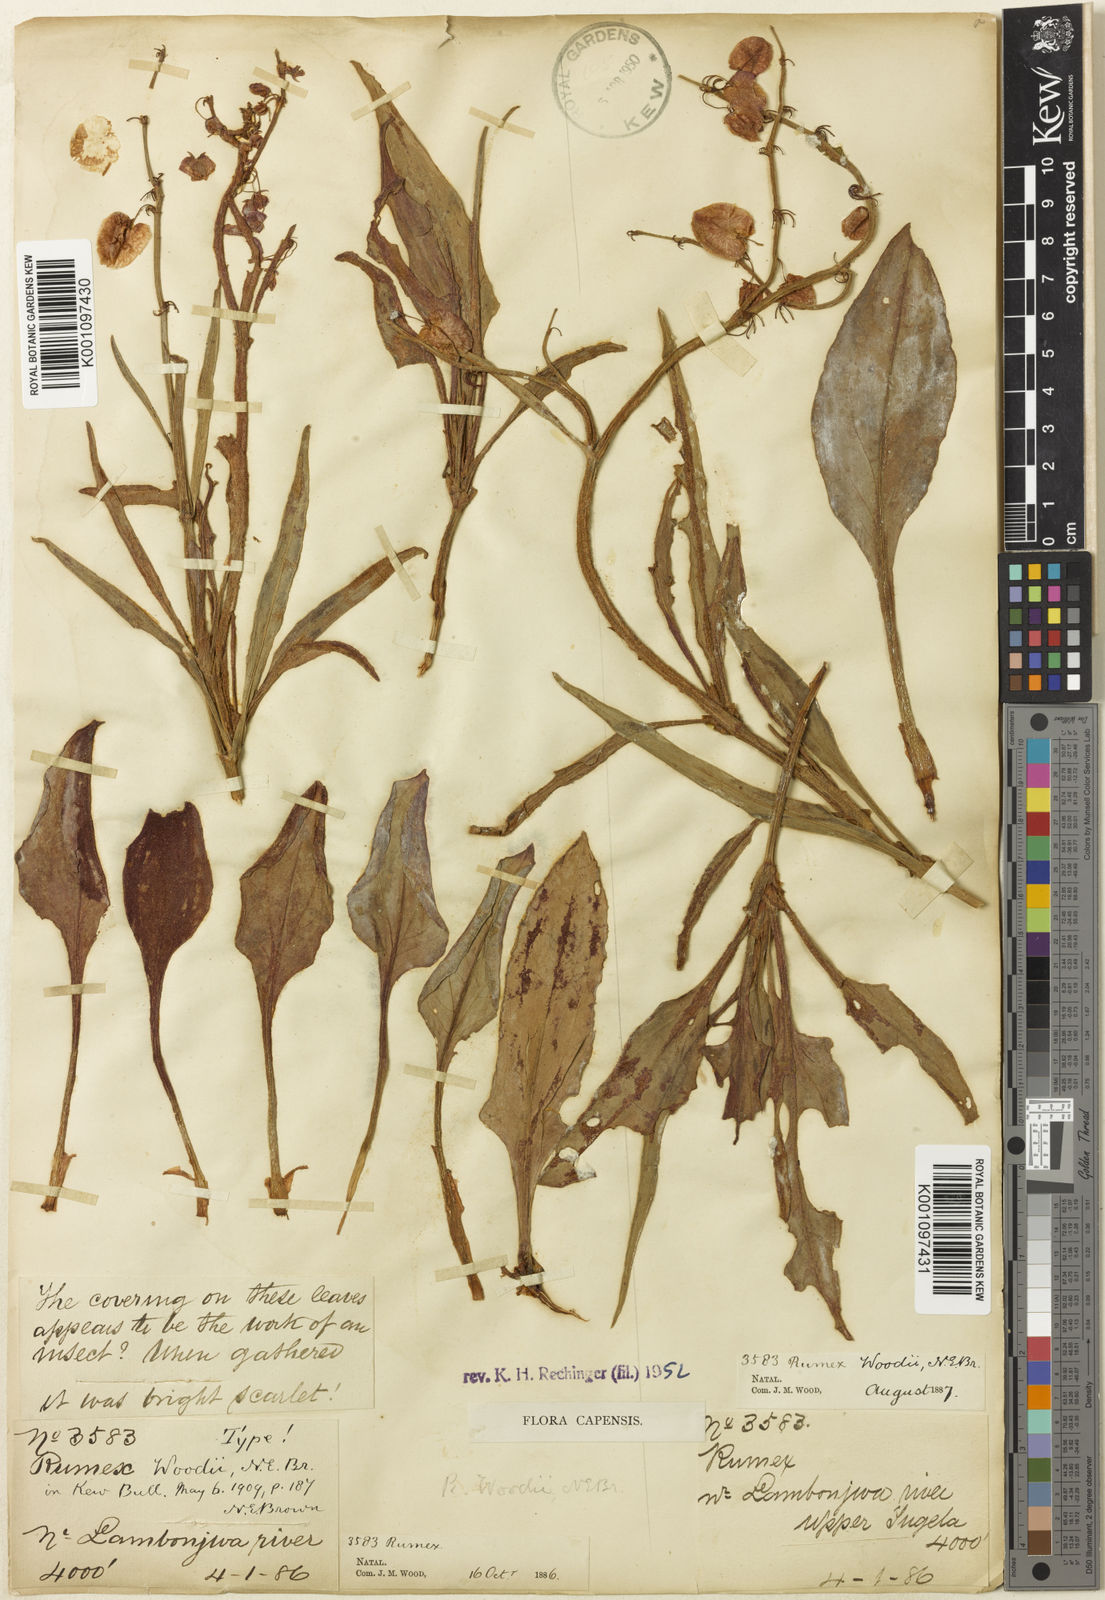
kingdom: Plantae
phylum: Tracheophyta
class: Magnoliopsida
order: Caryophyllales
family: Polygonaceae
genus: Rumex
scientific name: Rumex woodii
